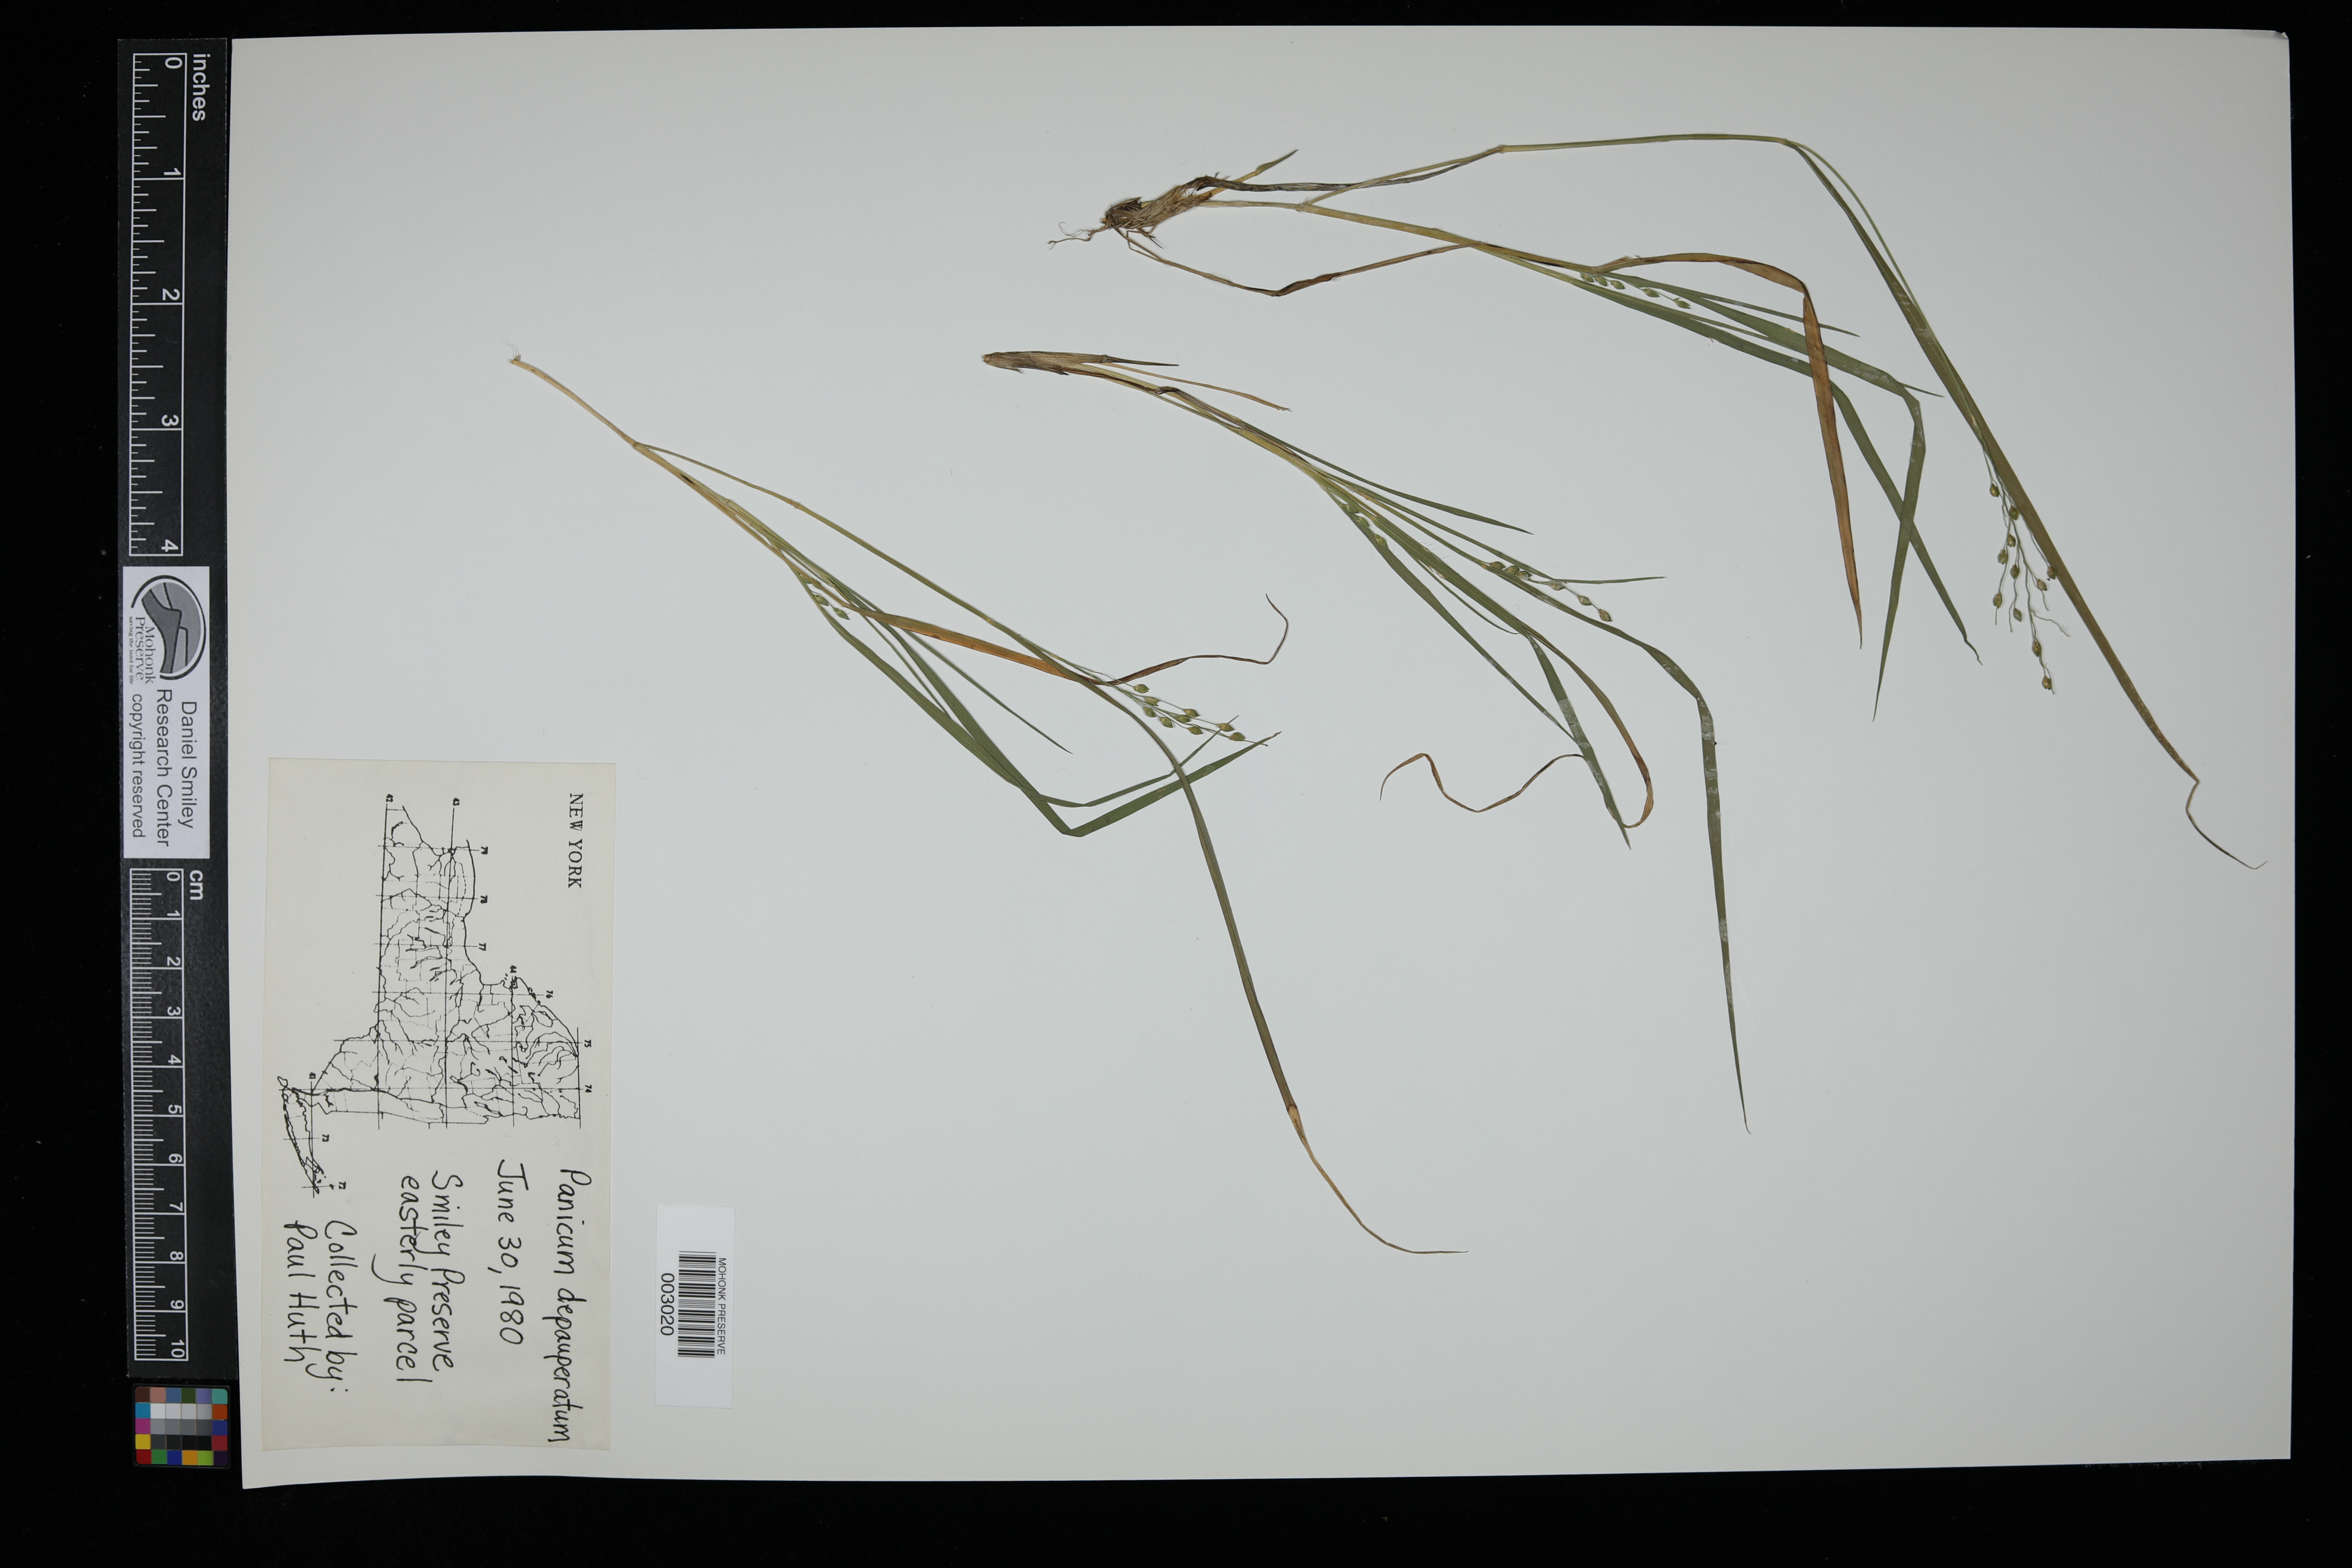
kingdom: Plantae
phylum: Tracheophyta
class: Liliopsida
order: Poales
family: Poaceae
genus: Dichanthelium
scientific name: Dichanthelium depauperatum
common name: Depauperate panicgrass
